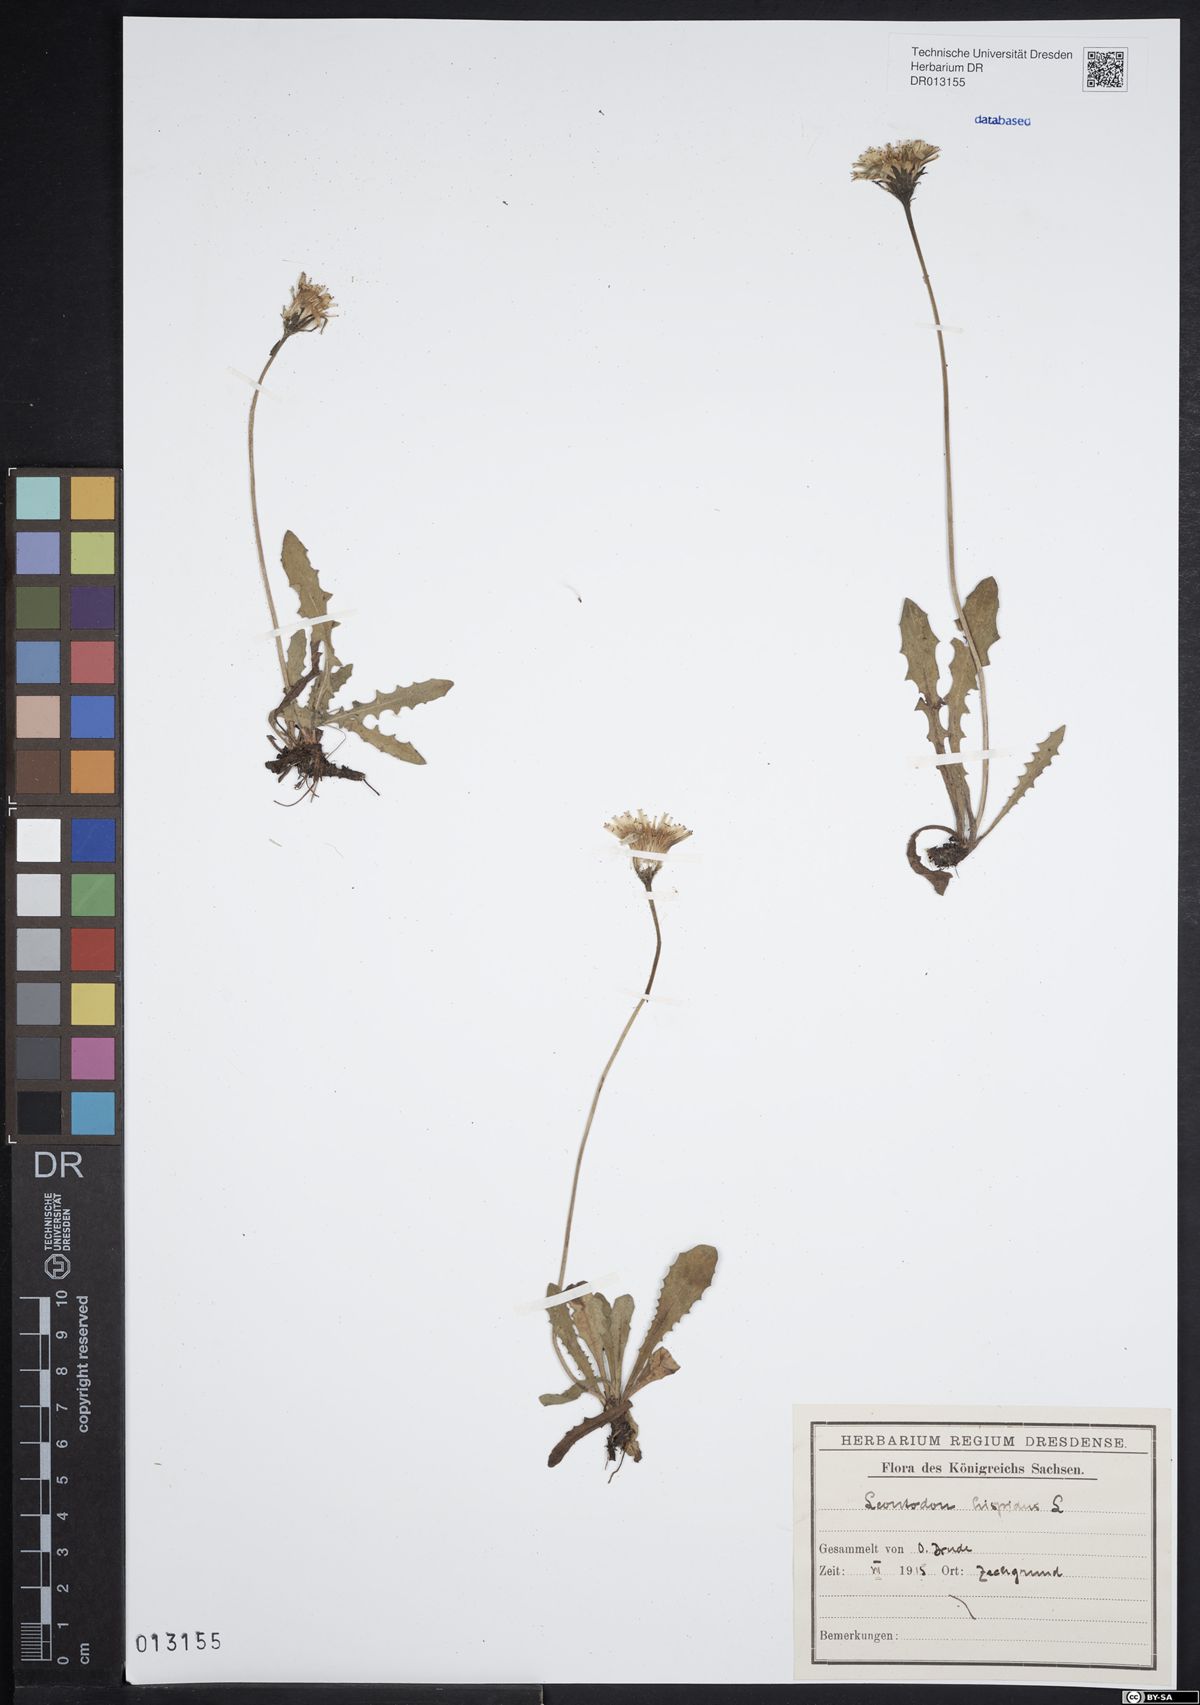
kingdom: Plantae
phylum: Tracheophyta
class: Magnoliopsida
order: Asterales
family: Asteraceae
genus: Leontodon
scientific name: Leontodon hispidus
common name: Rough hawkbit
